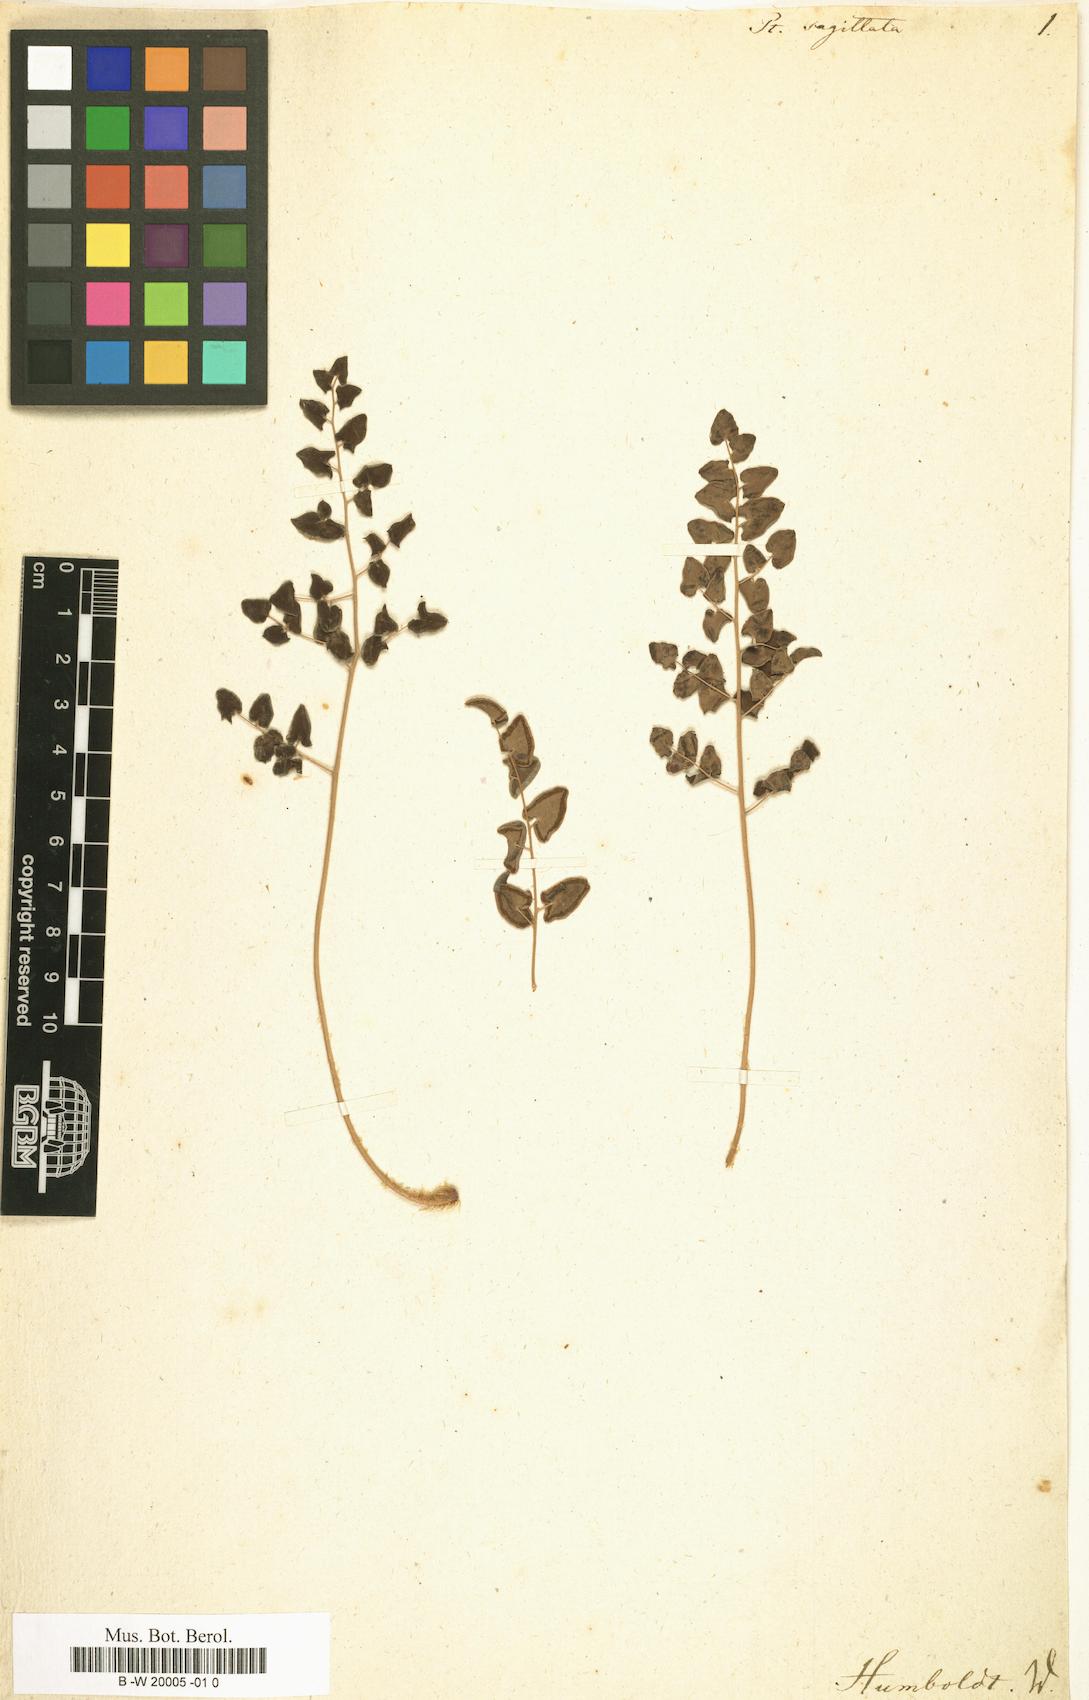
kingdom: Plantae
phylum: Tracheophyta
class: Polypodiopsida
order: Polypodiales
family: Pteridaceae
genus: Pellaea
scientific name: Pellaea sagittata
